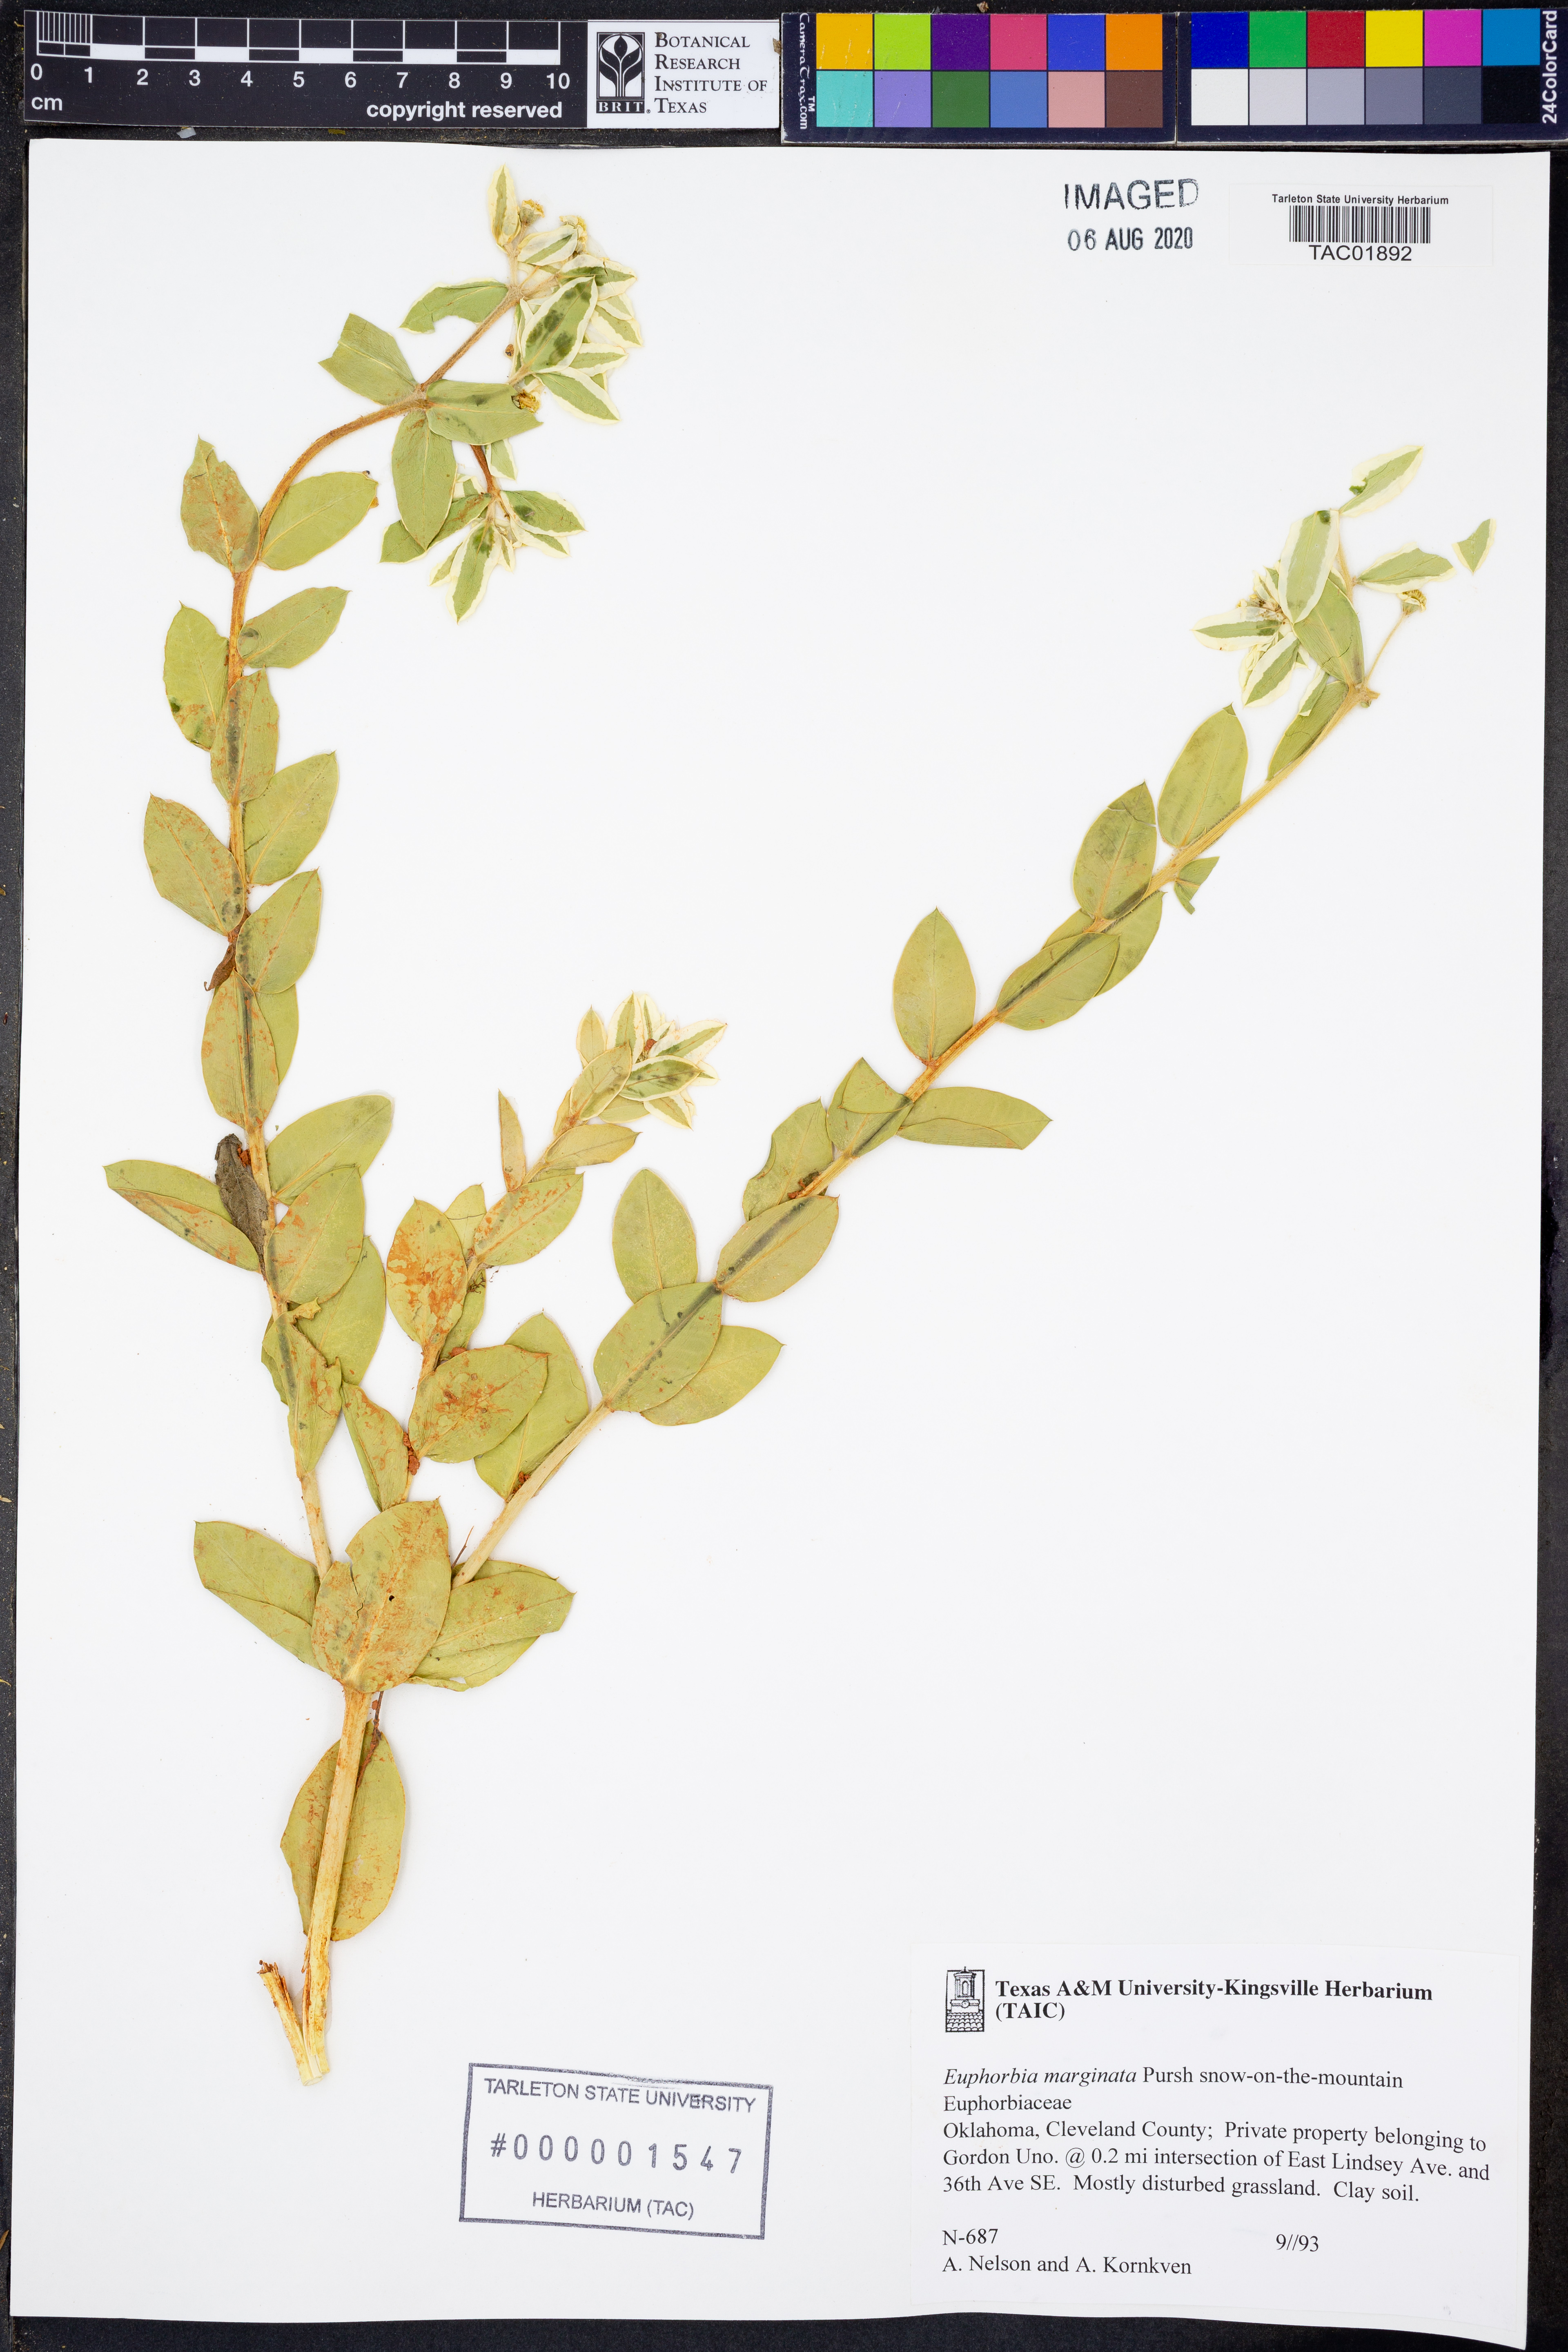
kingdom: Plantae
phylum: Tracheophyta
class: Magnoliopsida
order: Malpighiales
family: Euphorbiaceae
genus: Euphorbia
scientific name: Euphorbia marginata
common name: Ghostweed
